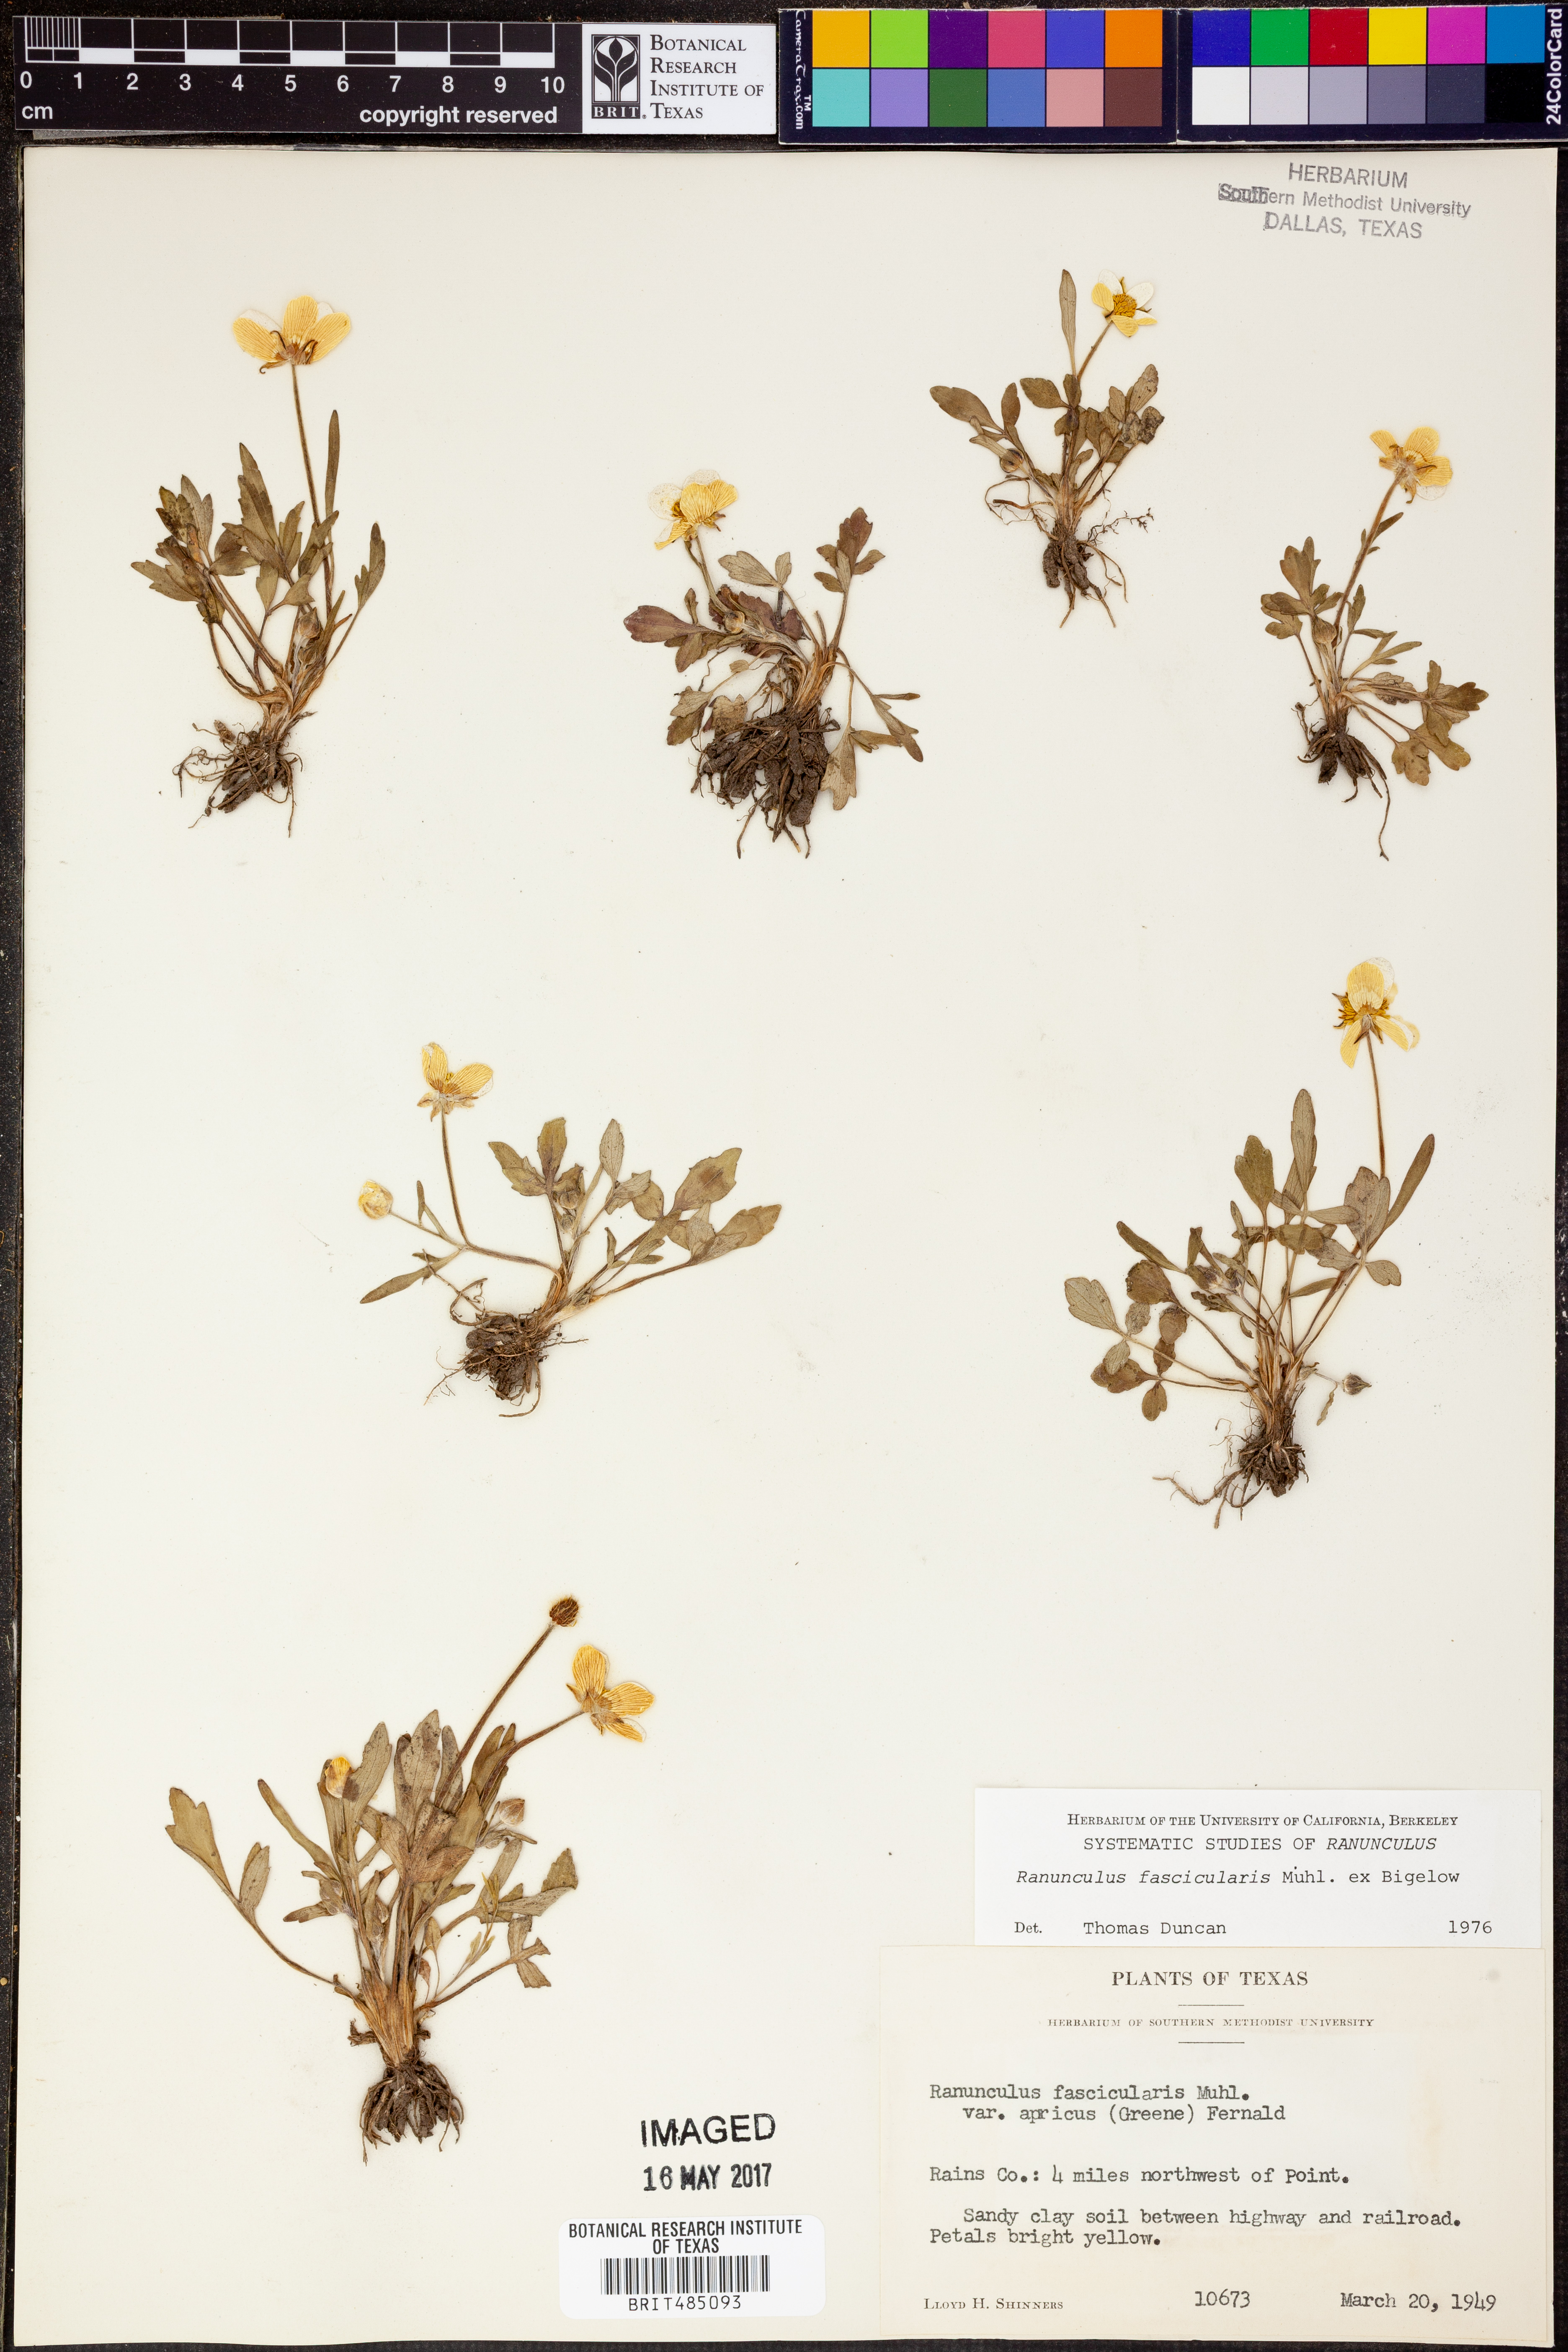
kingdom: Plantae
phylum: Tracheophyta
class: Magnoliopsida
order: Ranunculales
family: Ranunculaceae
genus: Ranunculus
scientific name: Ranunculus fascicularis
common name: Early buttercup
